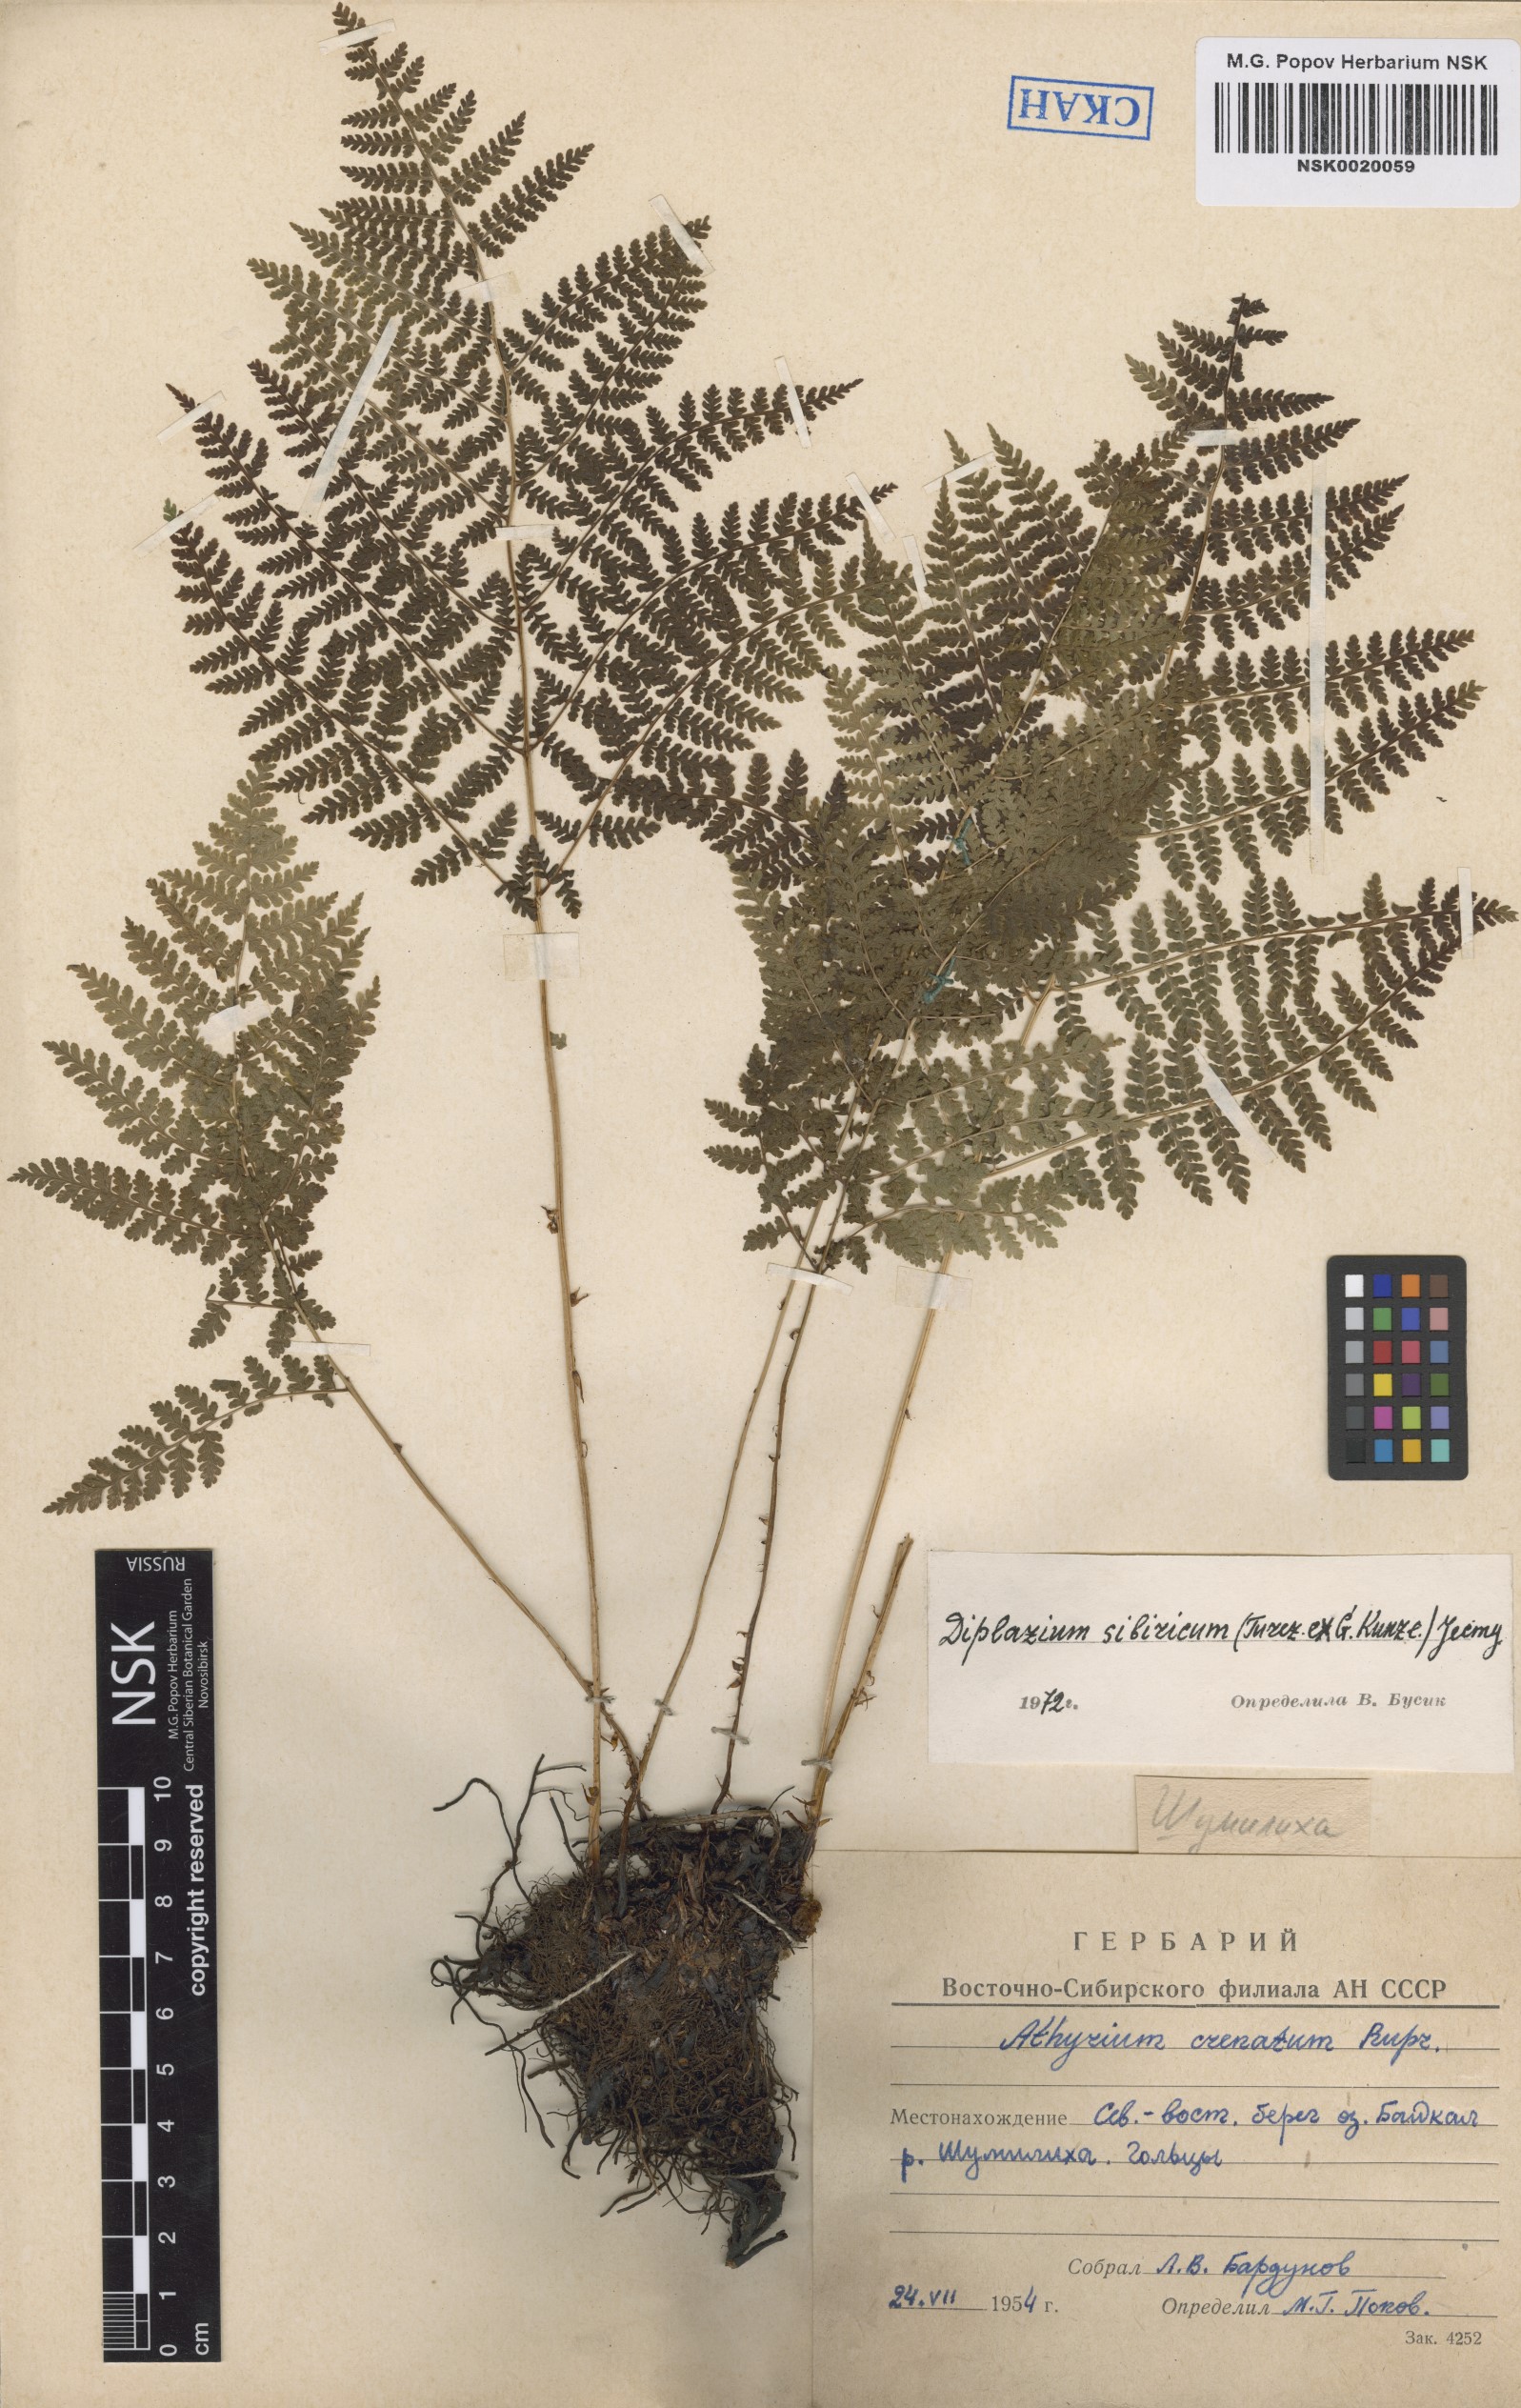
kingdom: Plantae
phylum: Tracheophyta
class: Polypodiopsida
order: Polypodiales
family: Athyriaceae
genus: Diplazium
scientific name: Diplazium sibiricum
